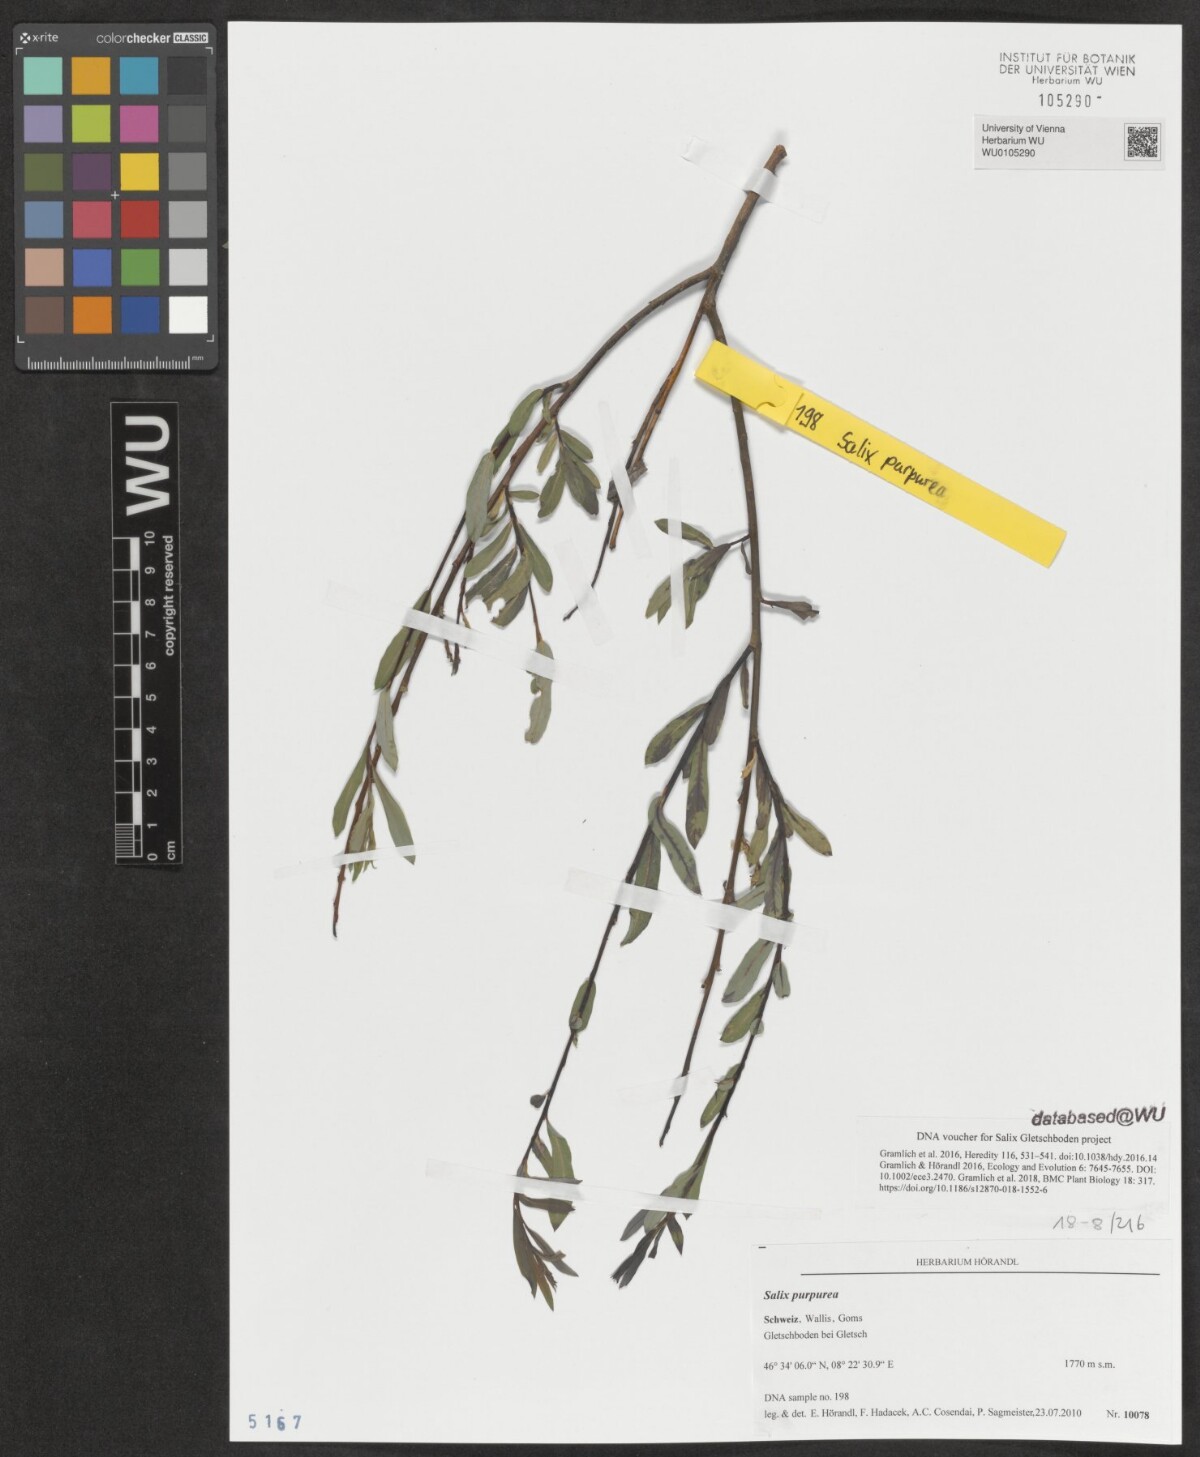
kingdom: Plantae
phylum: Tracheophyta
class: Magnoliopsida
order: Malpighiales
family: Salicaceae
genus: Salix
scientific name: Salix purpurea
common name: Purple willow
